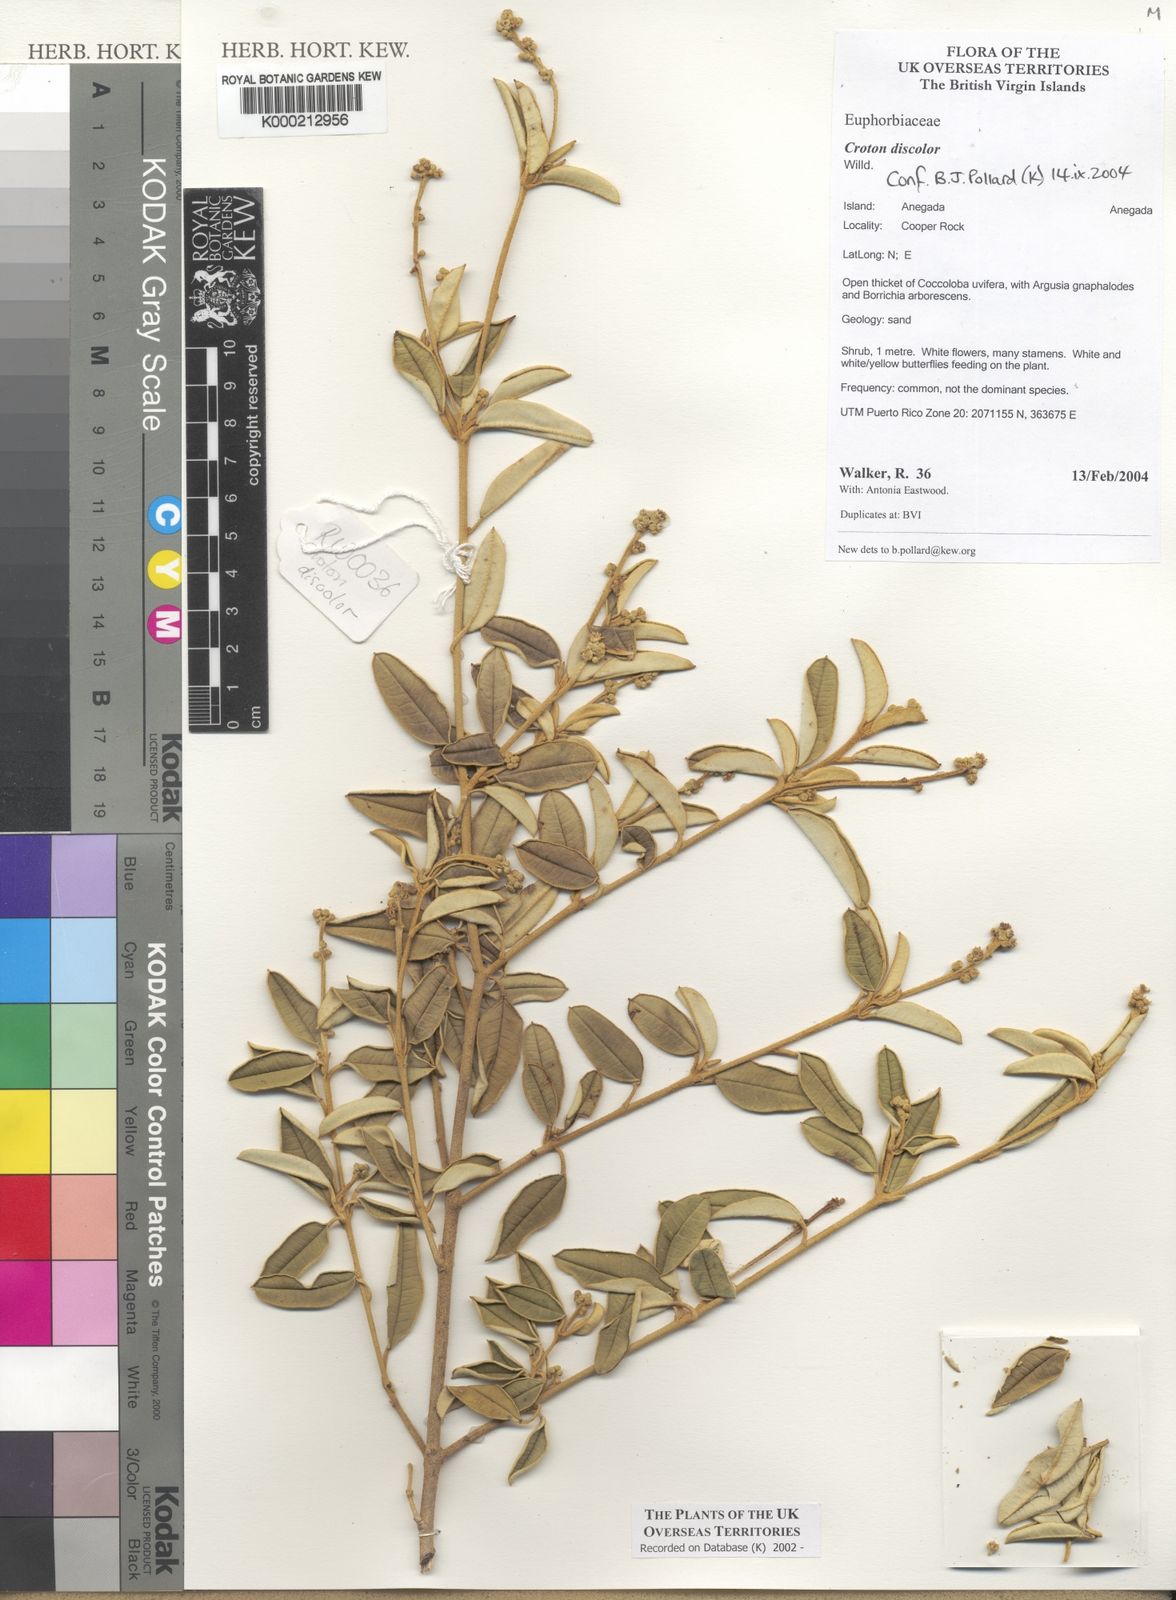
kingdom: Plantae
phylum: Tracheophyta
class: Magnoliopsida
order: Malpighiales
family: Euphorbiaceae
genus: Croton
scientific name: Croton discolor
